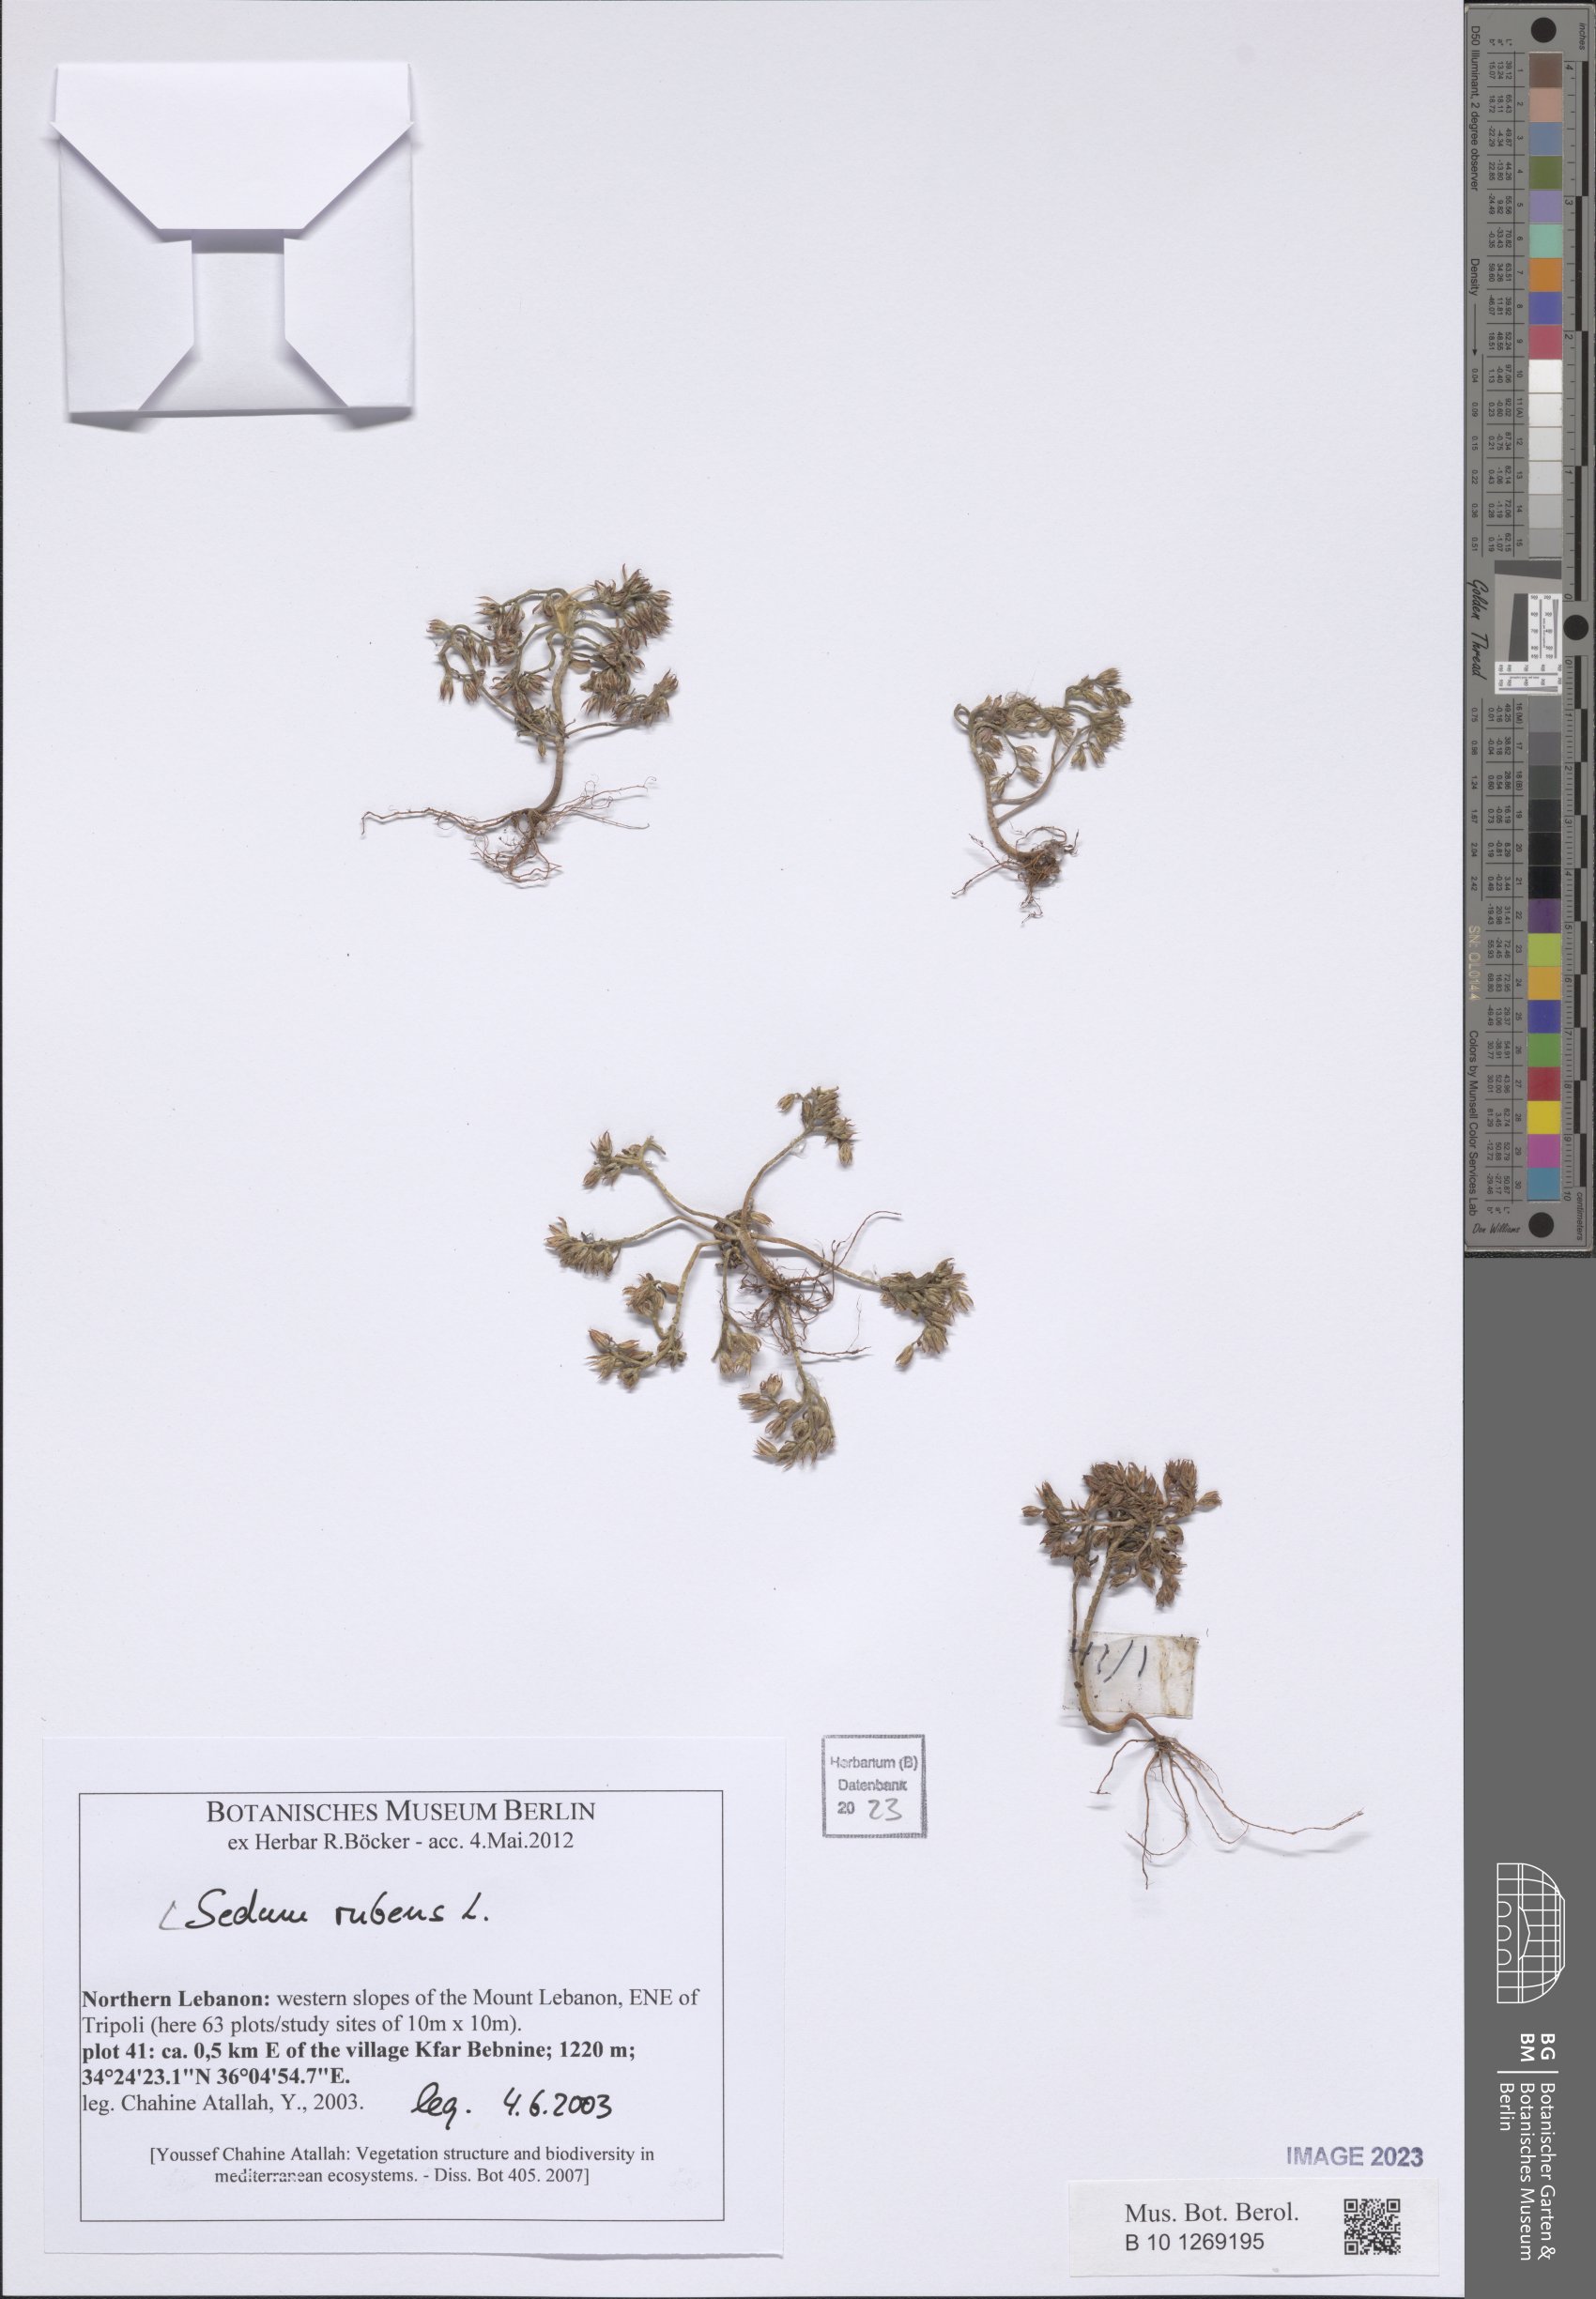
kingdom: Plantae
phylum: Tracheophyta
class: Magnoliopsida
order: Saxifragales
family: Crassulaceae
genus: Sedum
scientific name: Sedum rubens
